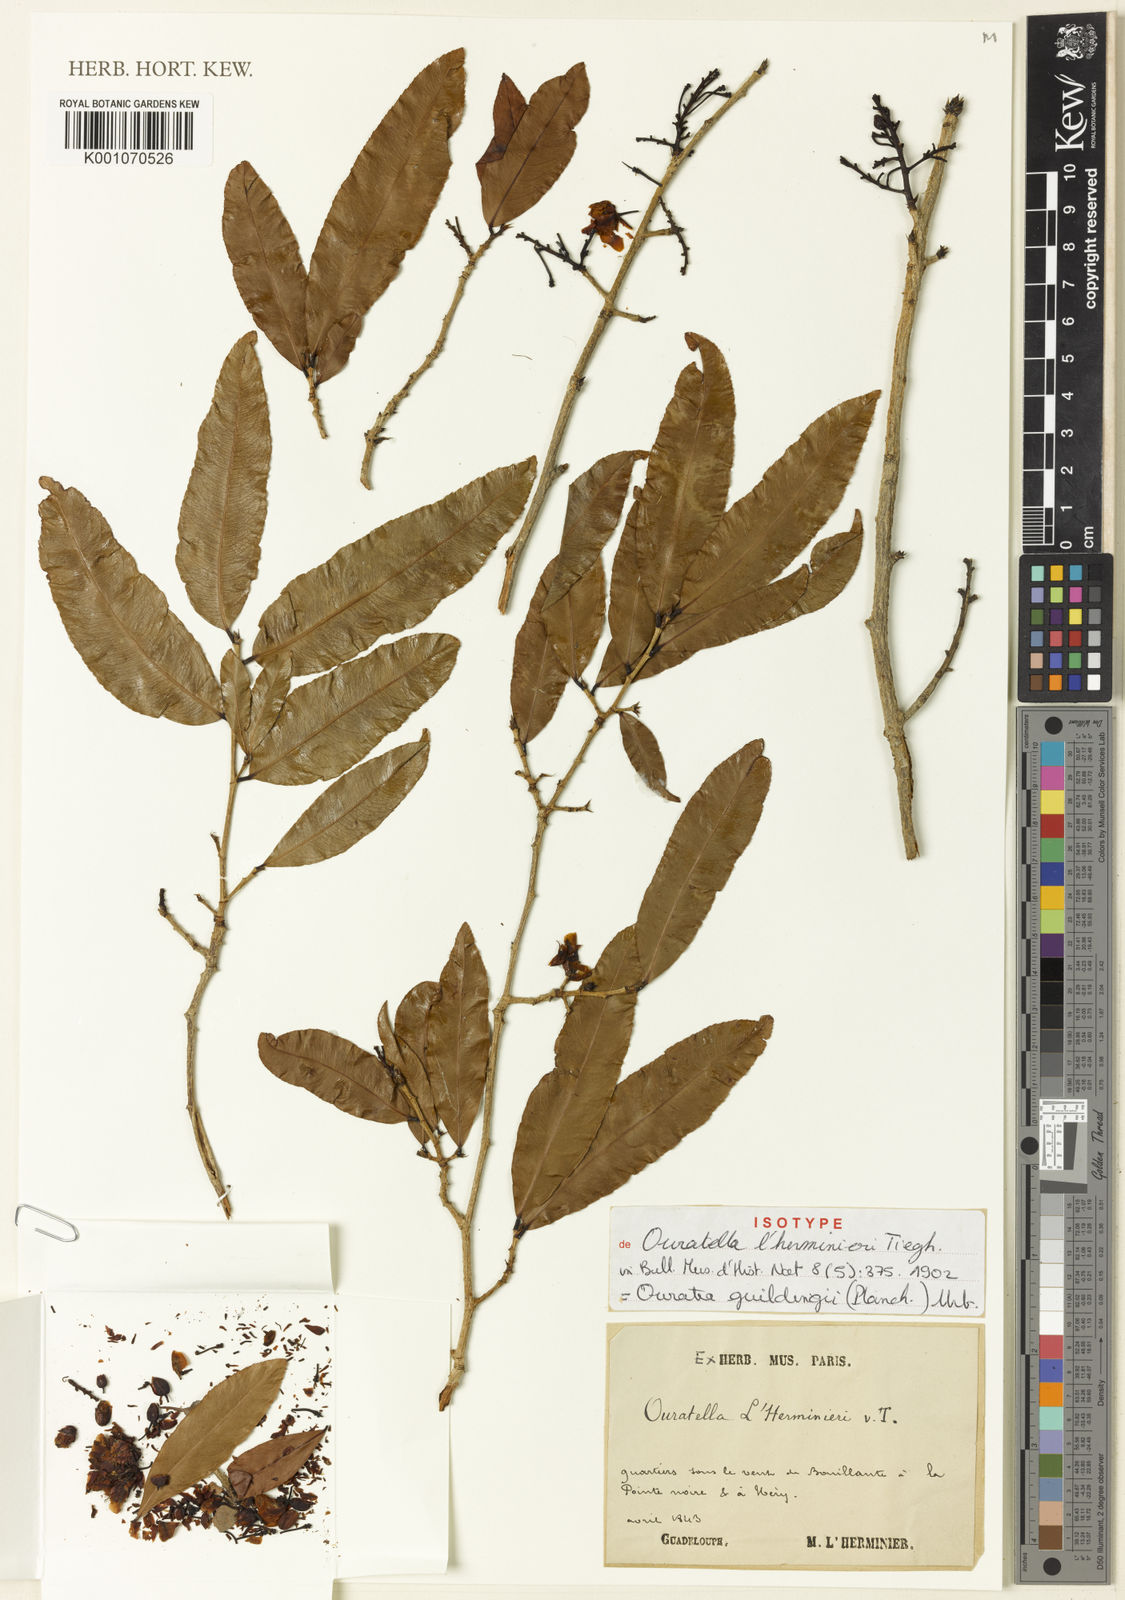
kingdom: Plantae
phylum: Tracheophyta
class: Magnoliopsida
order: Malpighiales
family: Ochnaceae
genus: Ouratea
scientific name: Ouratea
